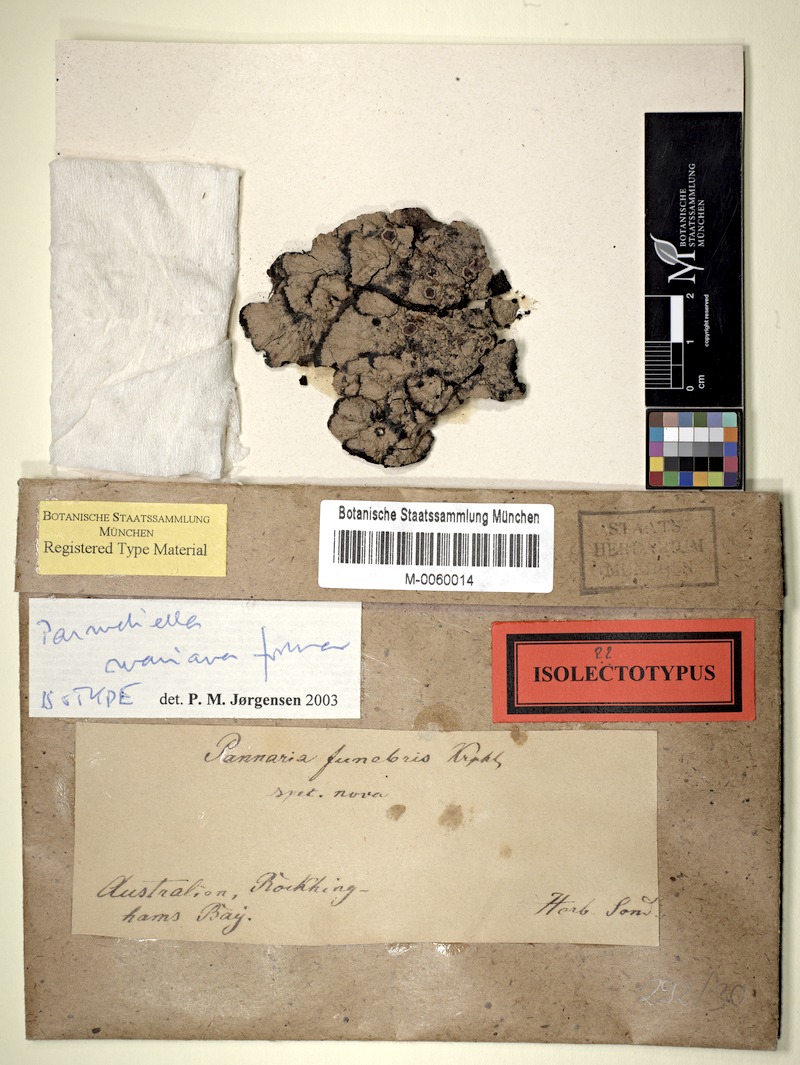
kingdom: Fungi
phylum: Ascomycota
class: Lecanoromycetes
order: Peltigerales
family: Pannariaceae
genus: Lepidocollema
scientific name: Lepidocollema marianum
